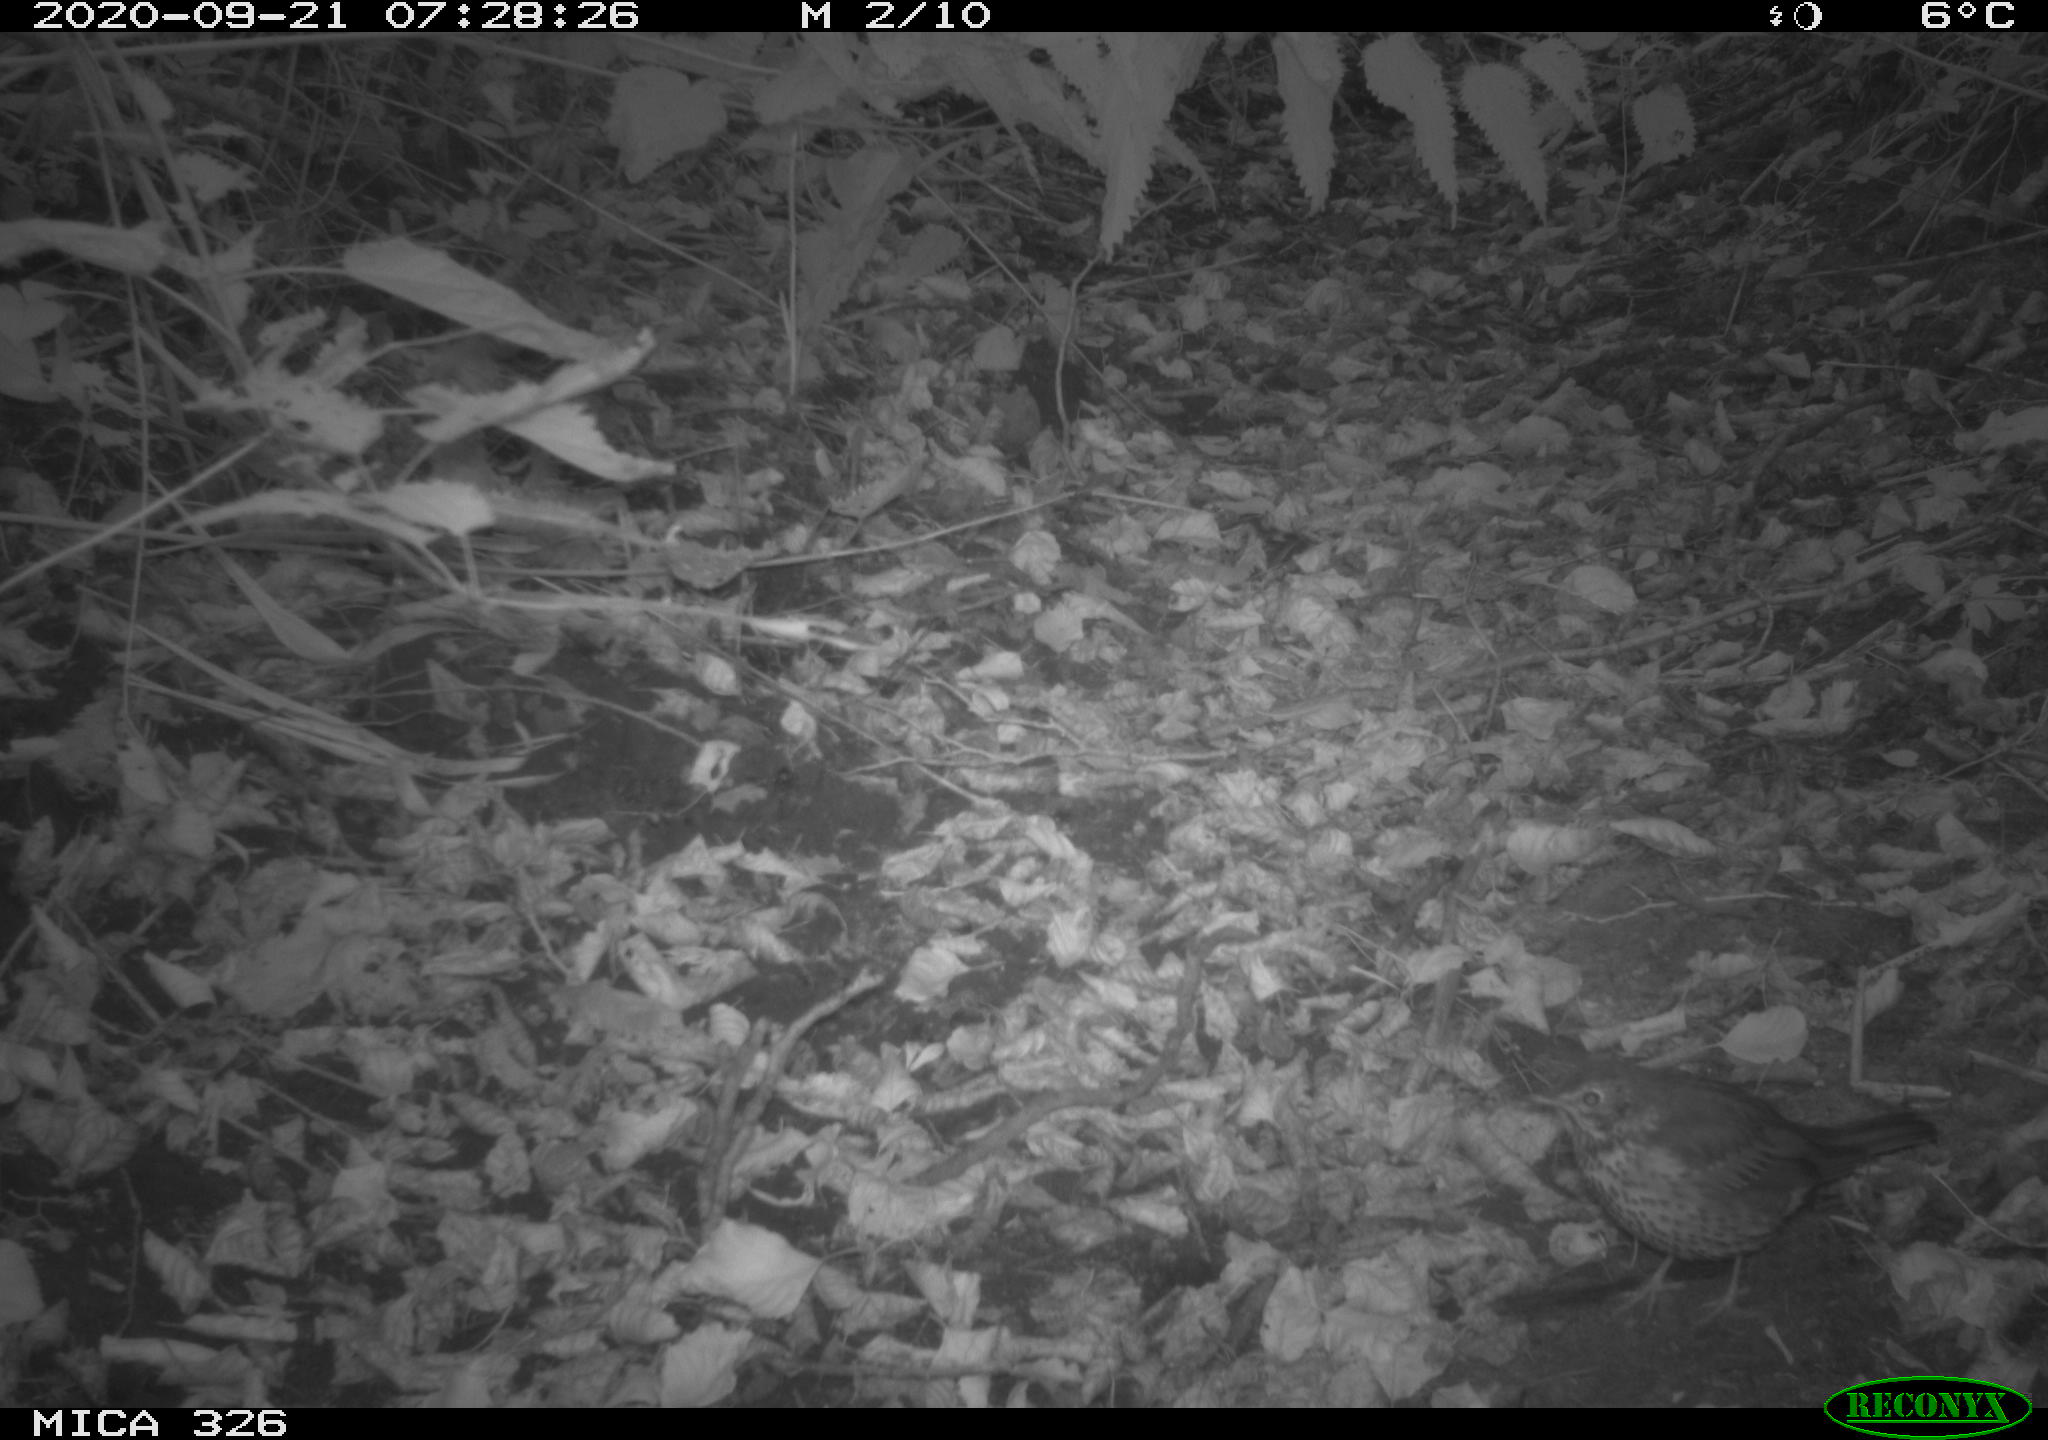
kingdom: Animalia
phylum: Chordata
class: Aves
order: Passeriformes
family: Turdidae
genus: Turdus
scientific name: Turdus philomelos
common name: Song thrush
